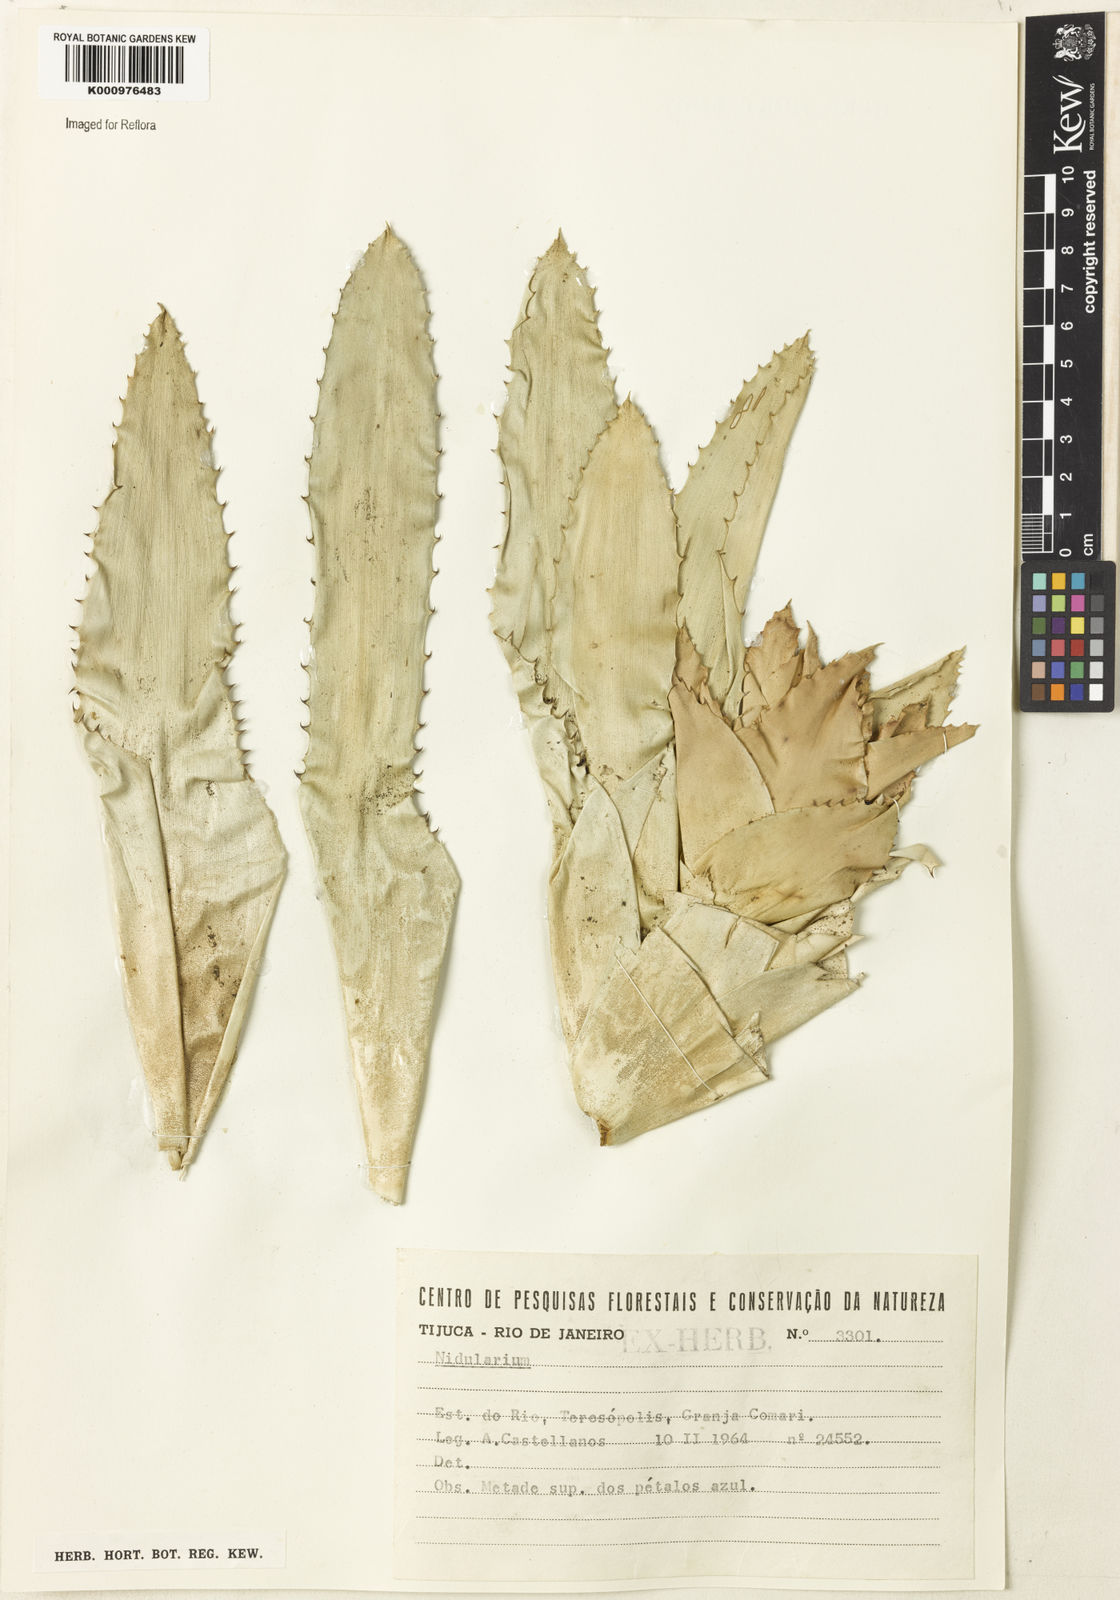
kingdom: Plantae
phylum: Tracheophyta
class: Liliopsida
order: Poales
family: Bromeliaceae
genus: Nidularium
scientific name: Nidularium
